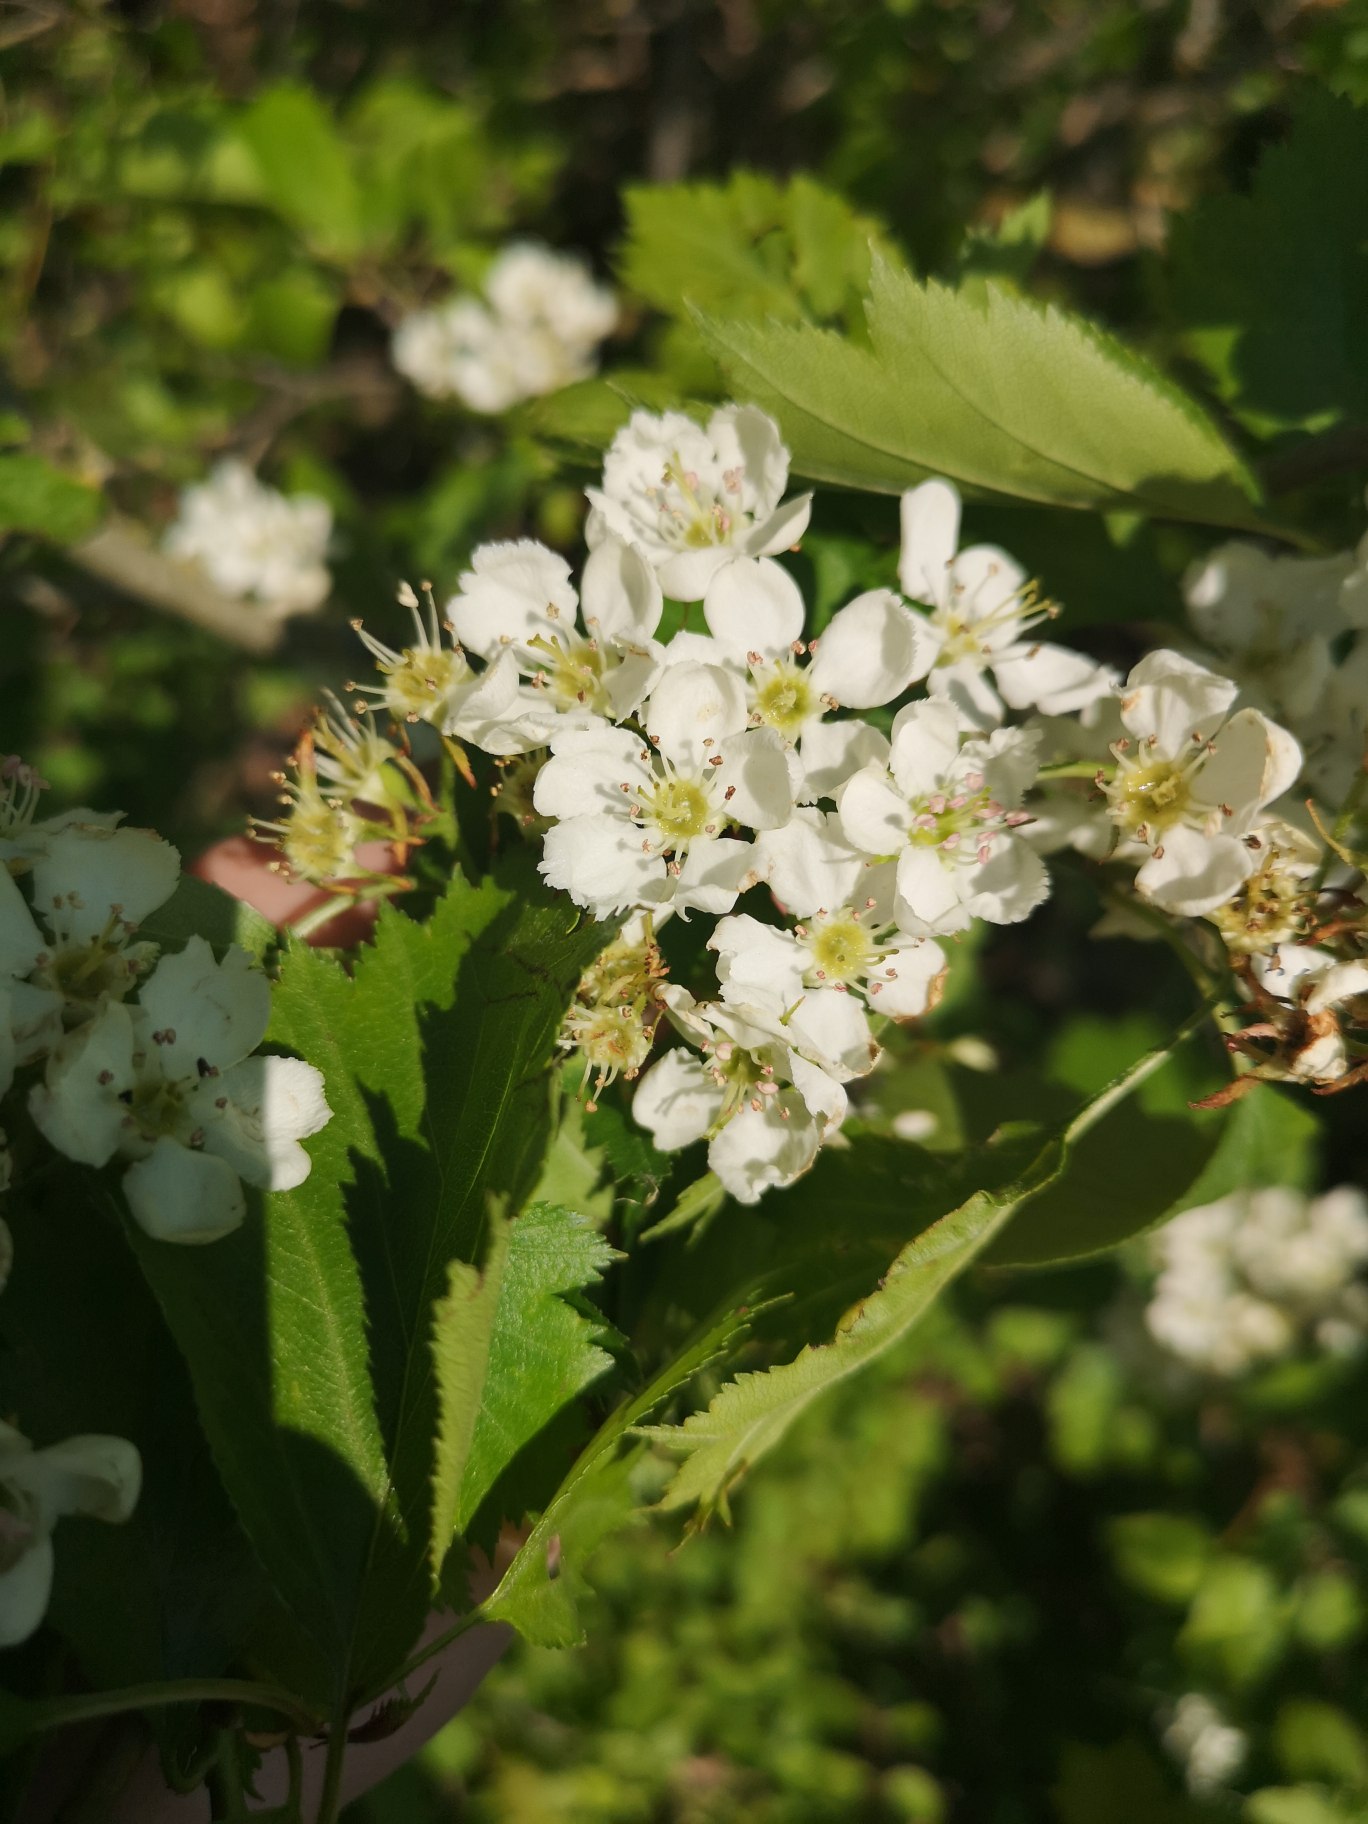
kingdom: Plantae
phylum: Tracheophyta
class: Magnoliopsida
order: Rosales
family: Rosaceae
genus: Crataegus
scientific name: Crataegus
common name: Hvidtjørnslægten
